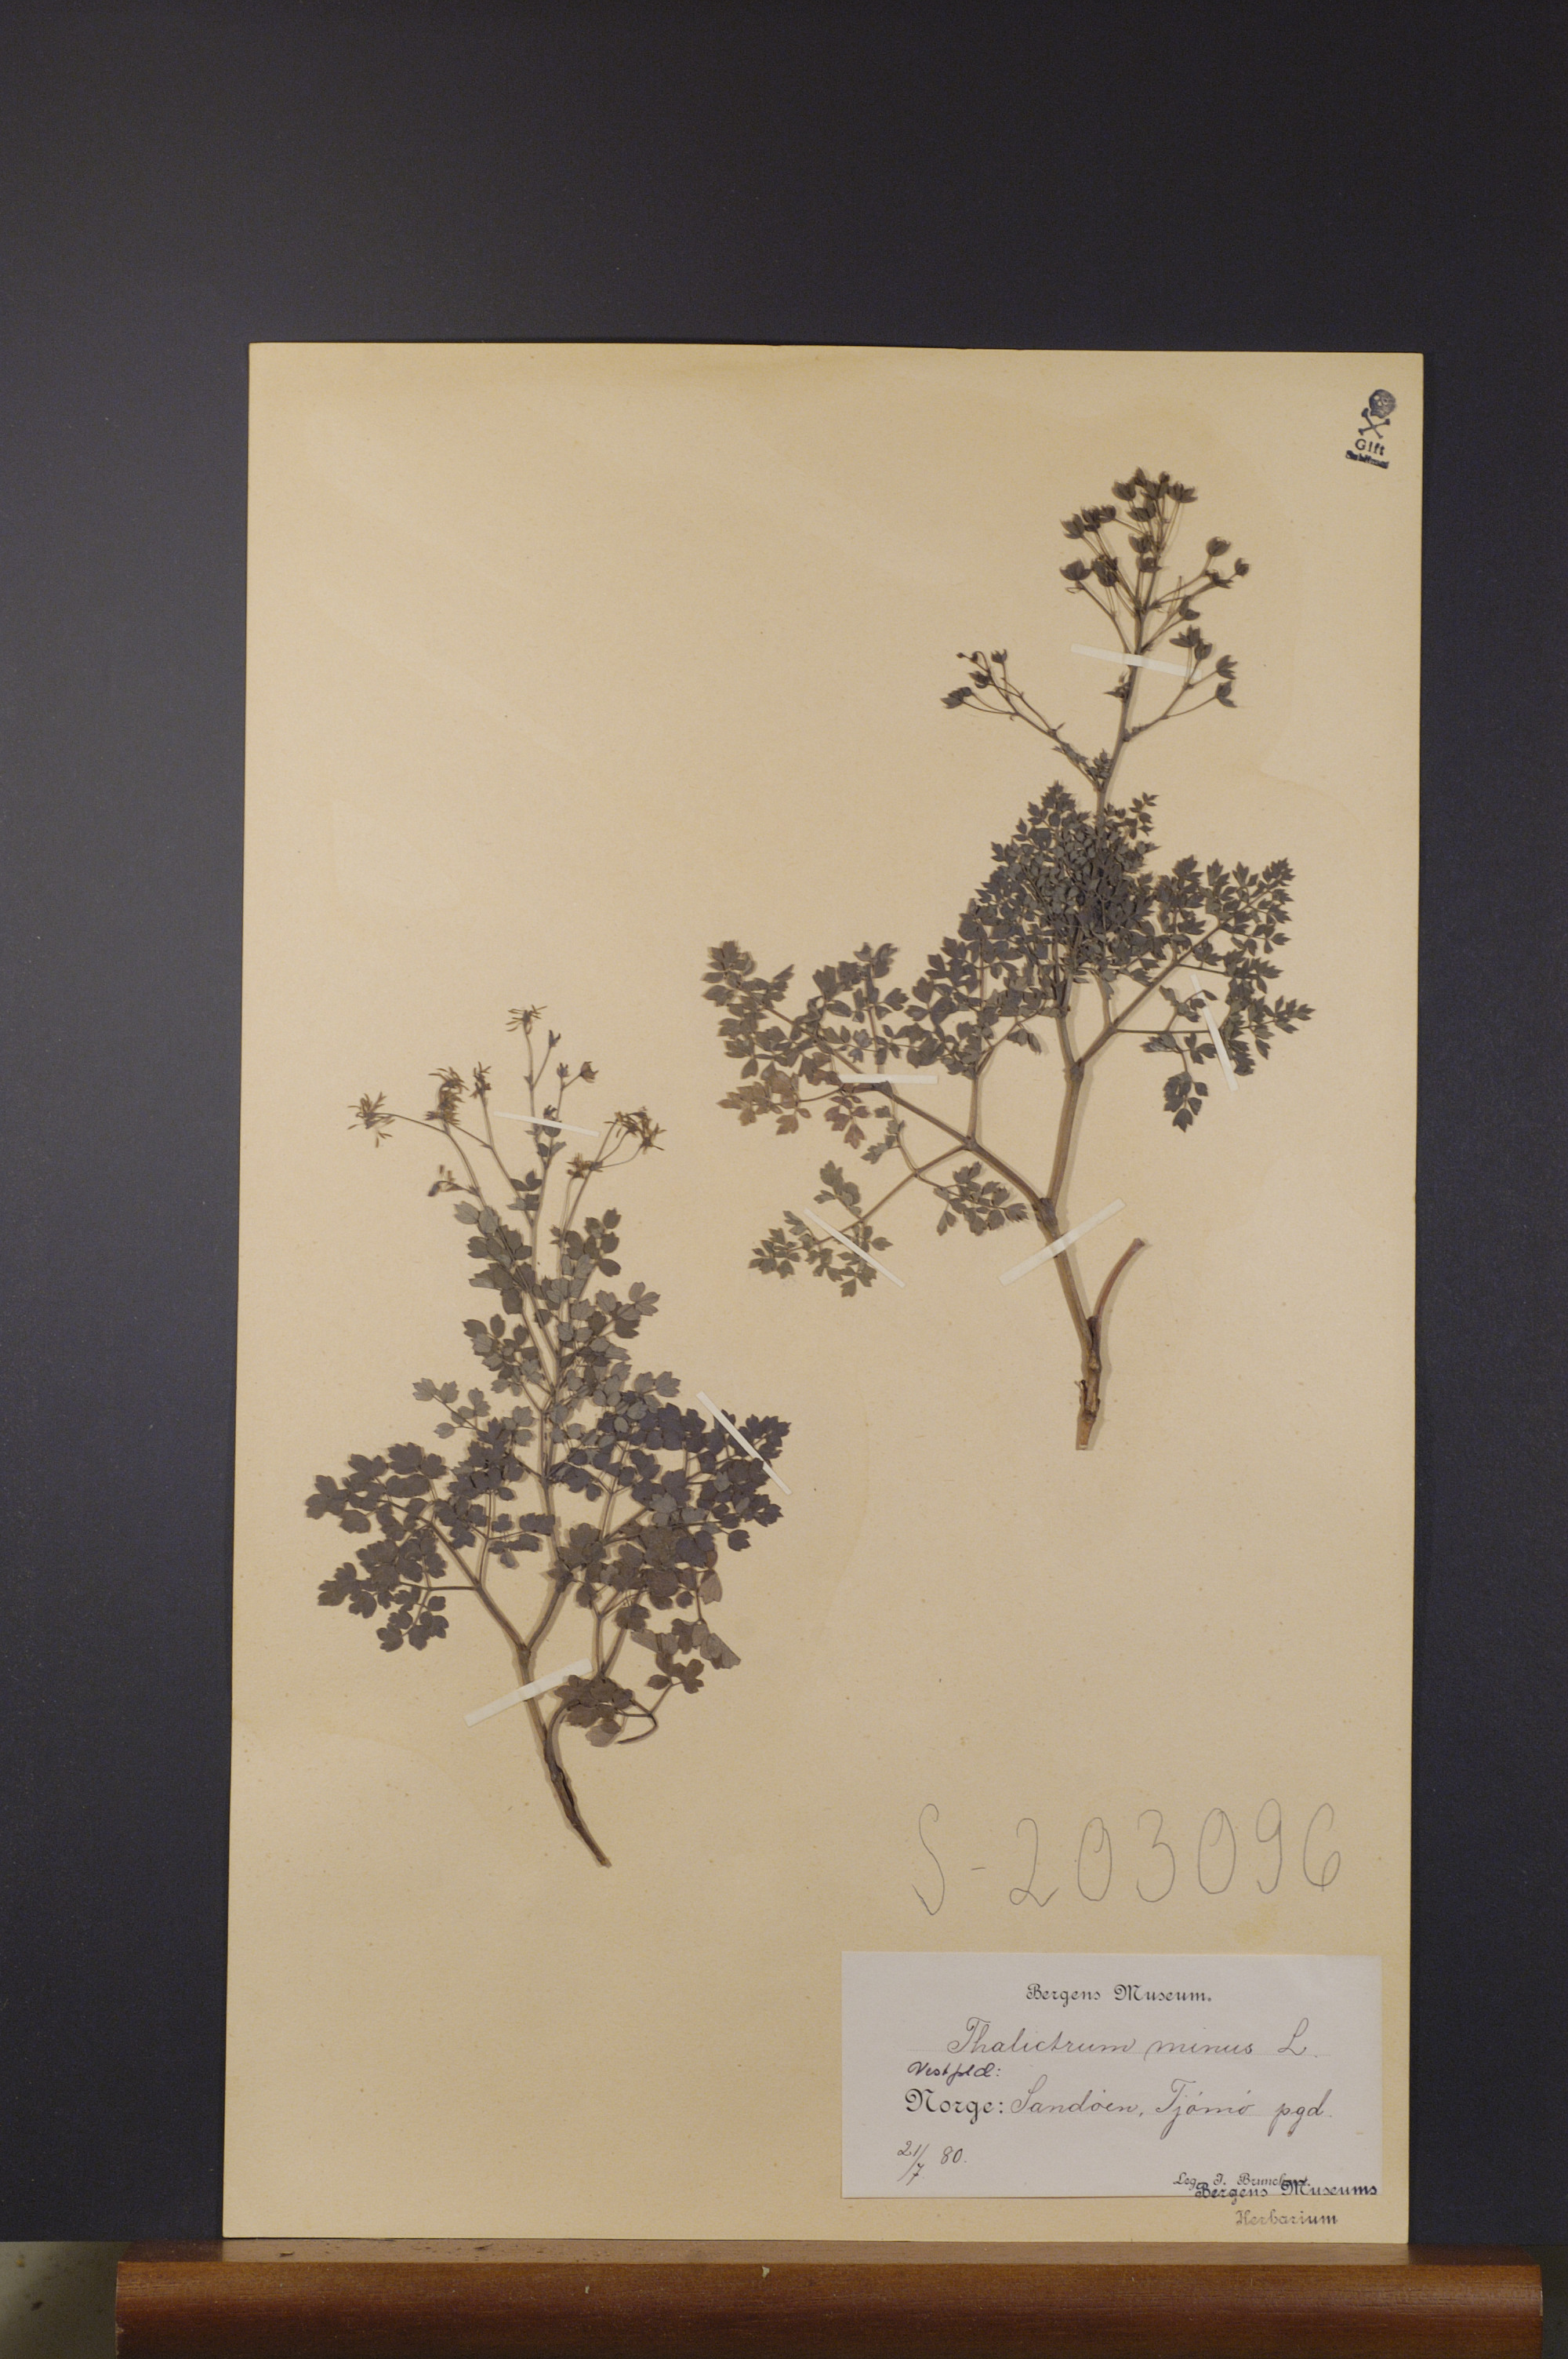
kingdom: Plantae
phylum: Tracheophyta
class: Magnoliopsida
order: Ranunculales
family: Ranunculaceae
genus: Thalictrum
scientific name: Thalictrum minus
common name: Lesser meadow-rue
